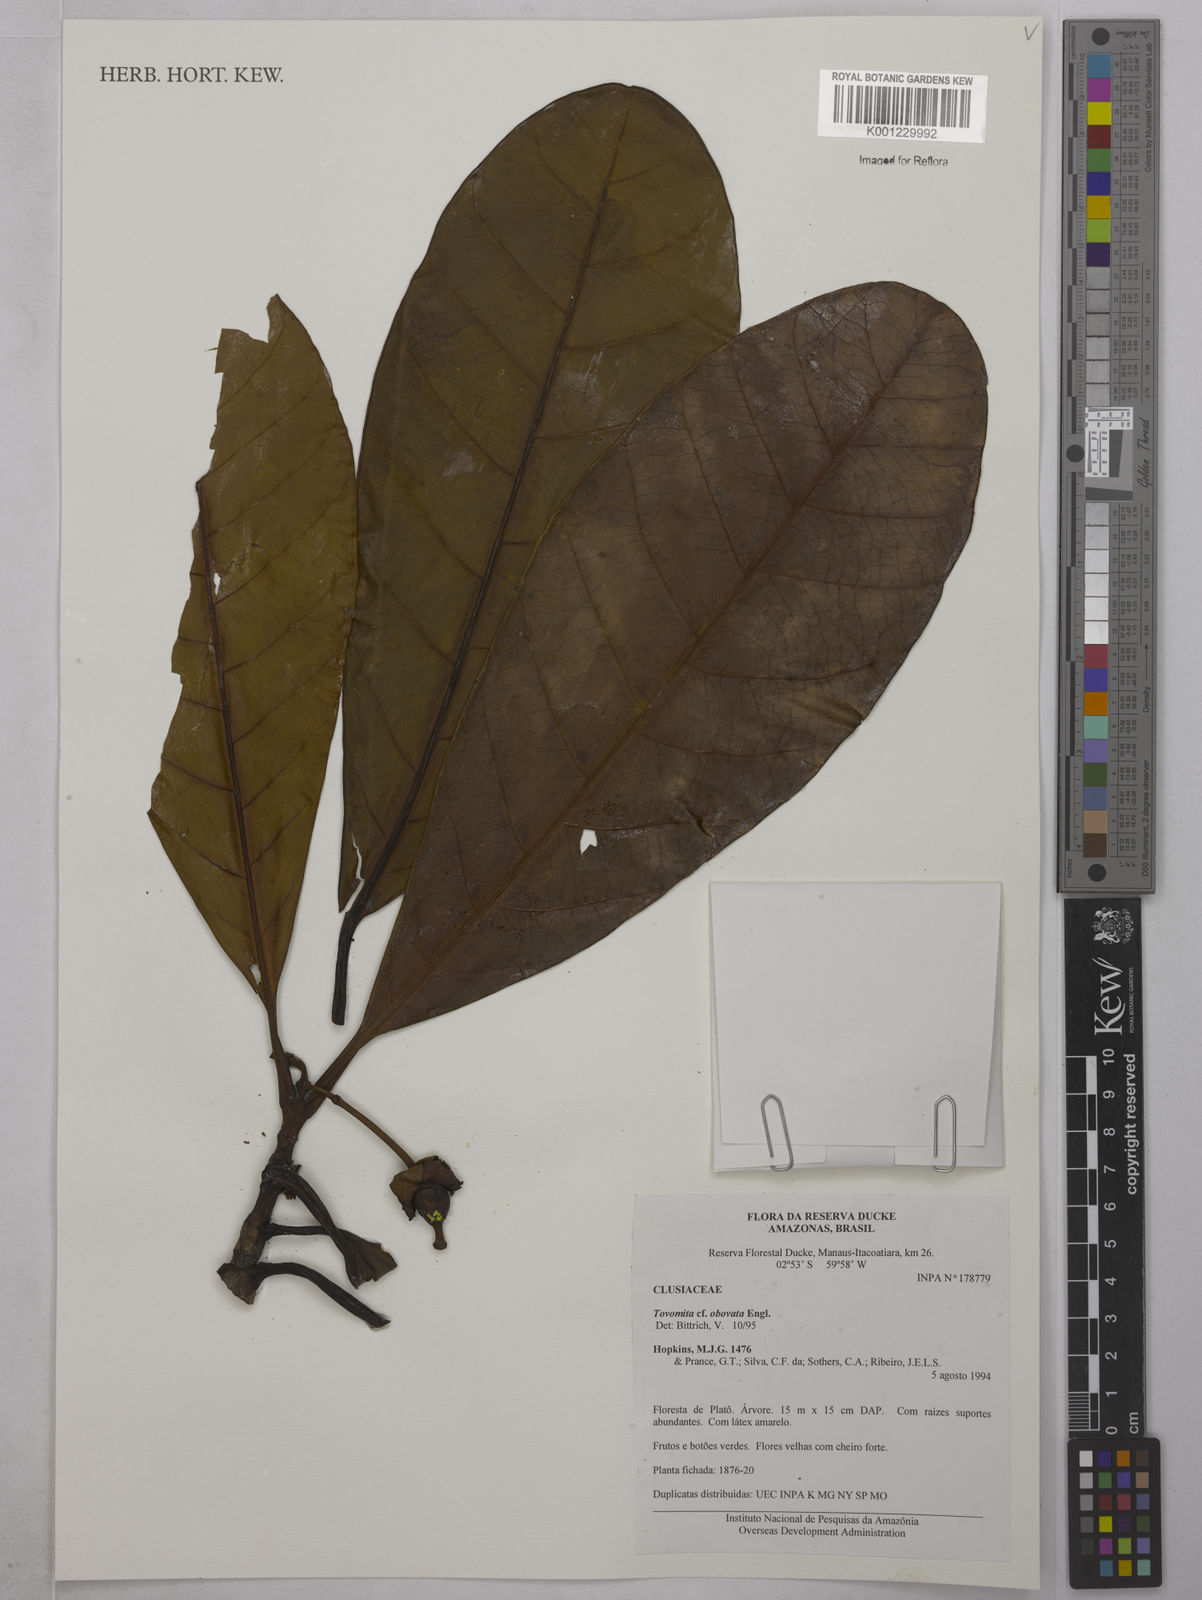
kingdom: Plantae
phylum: Tracheophyta
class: Magnoliopsida
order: Malpighiales
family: Clusiaceae
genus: Tovomita
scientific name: Tovomita obovata
